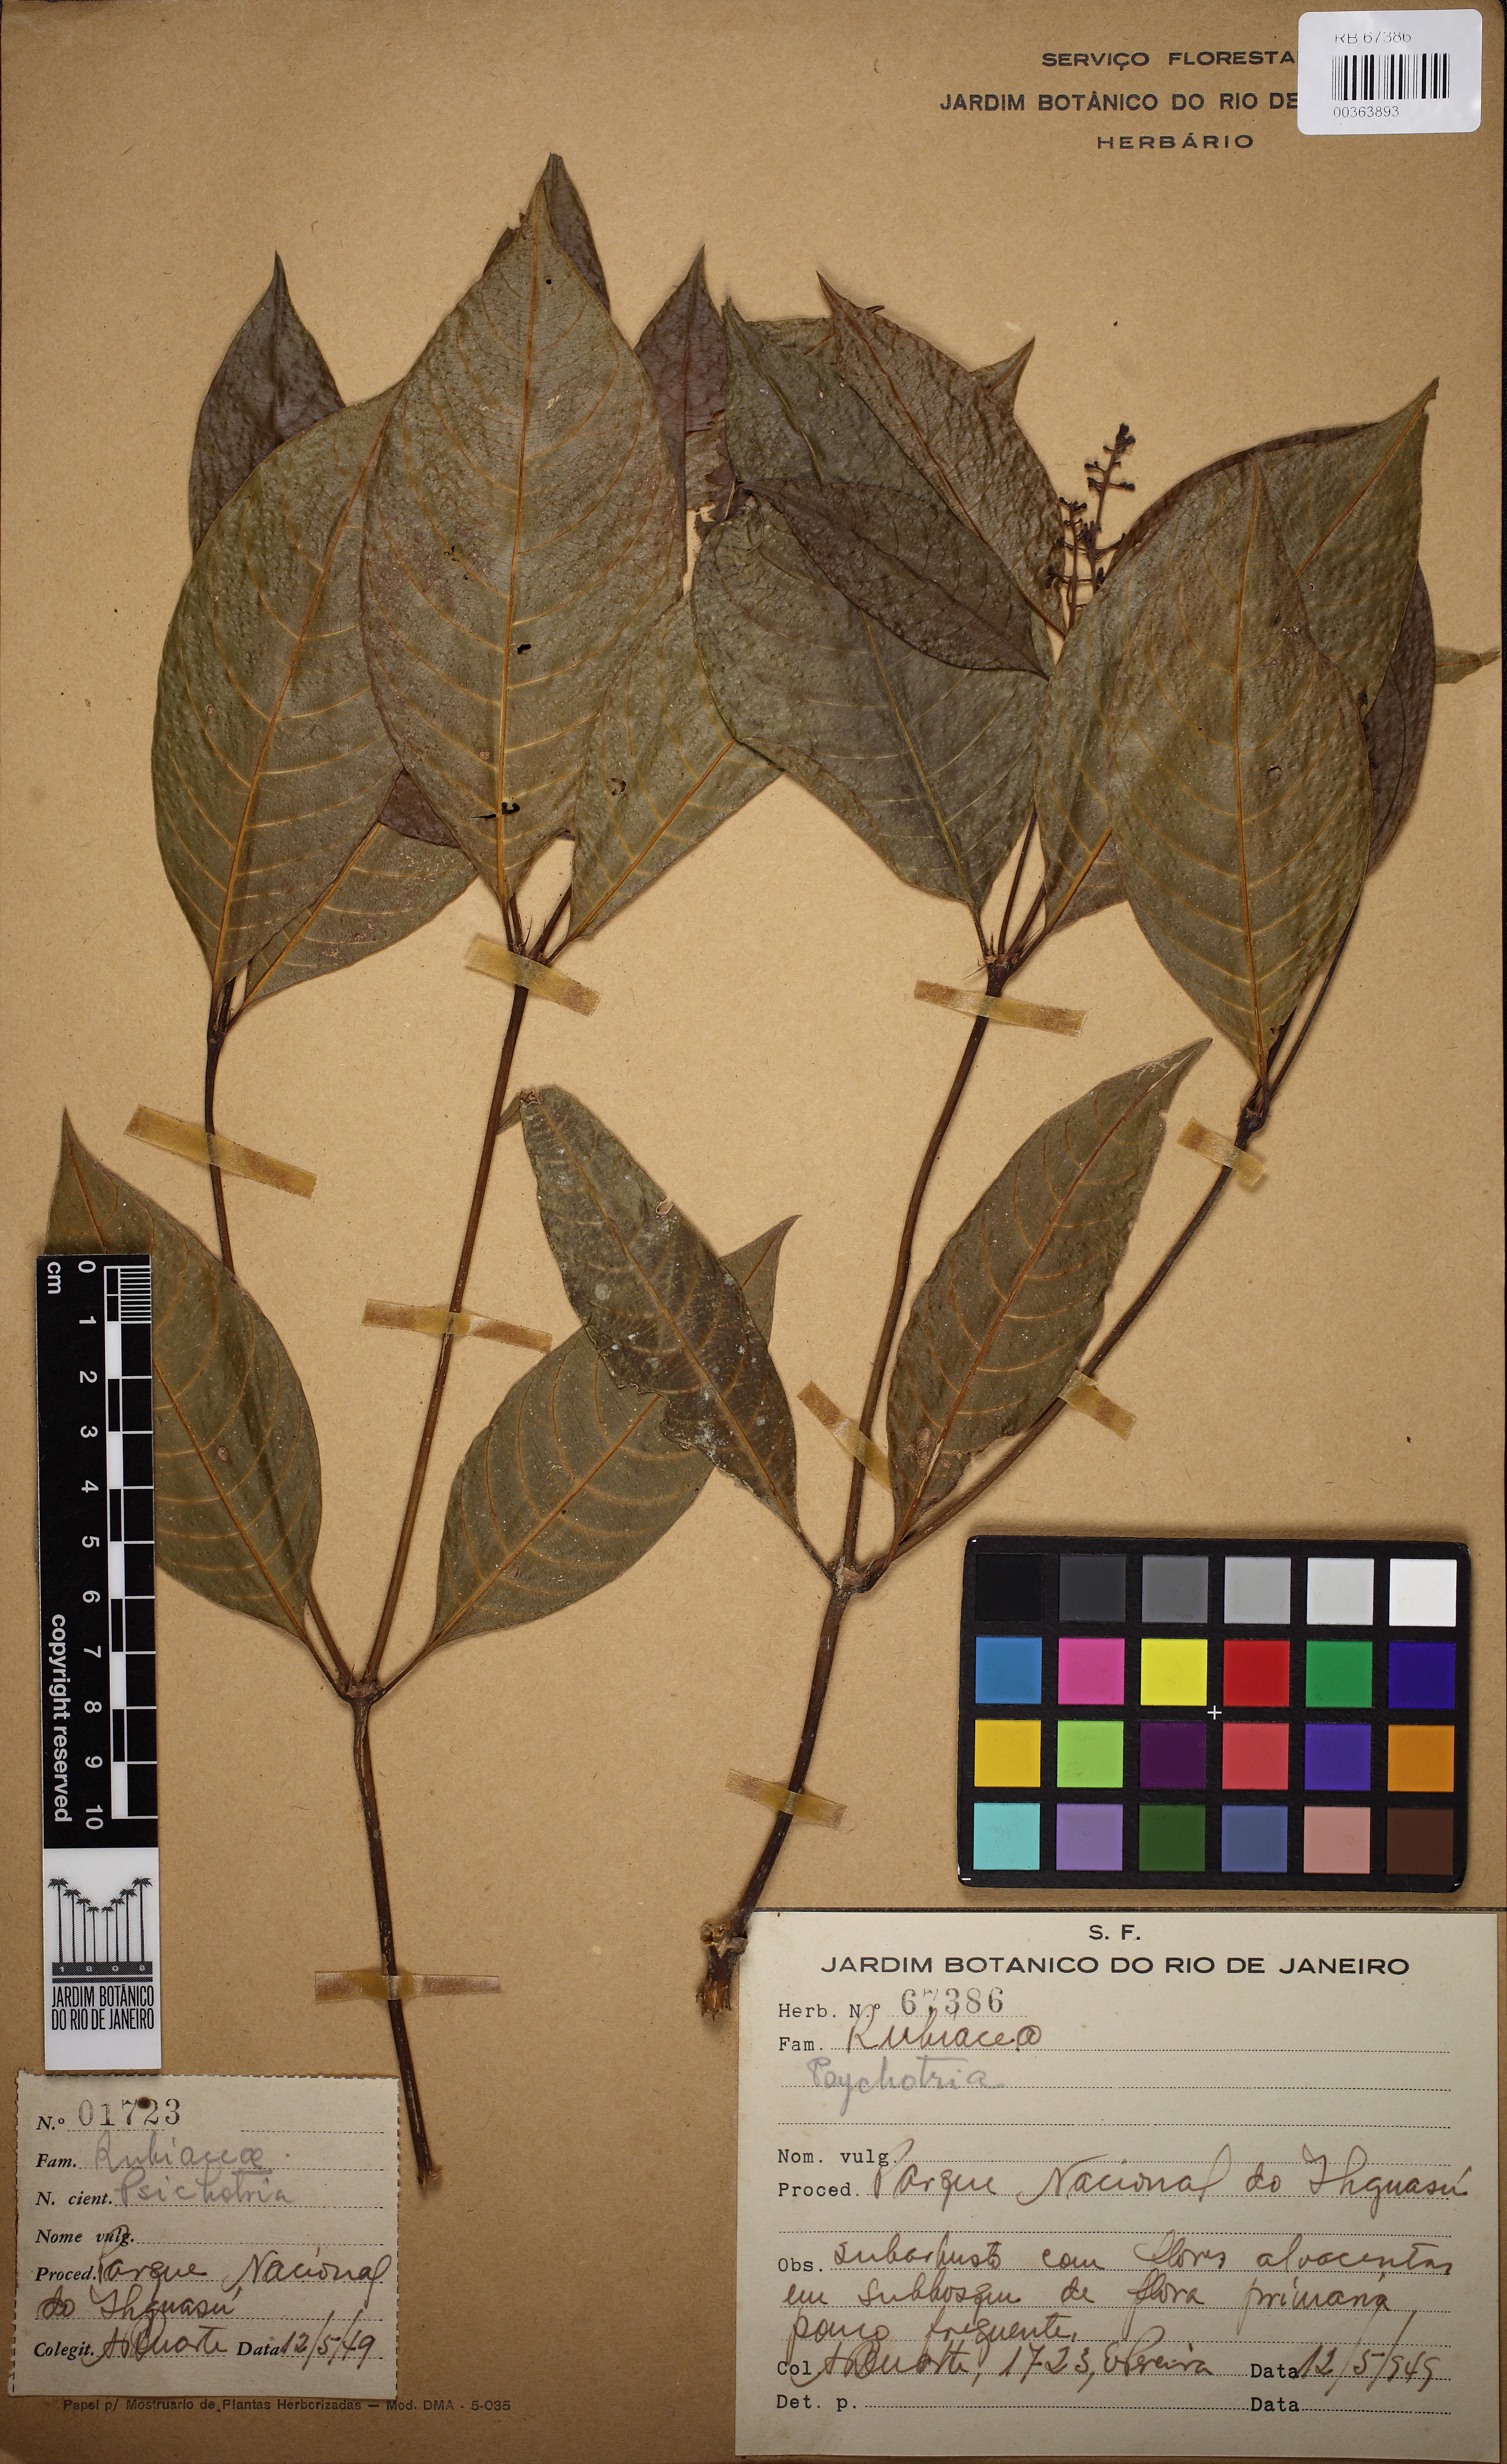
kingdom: Plantae
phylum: Tracheophyta
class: Magnoliopsida
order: Gentianales
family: Rubiaceae
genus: Psychotria
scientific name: Psychotria
